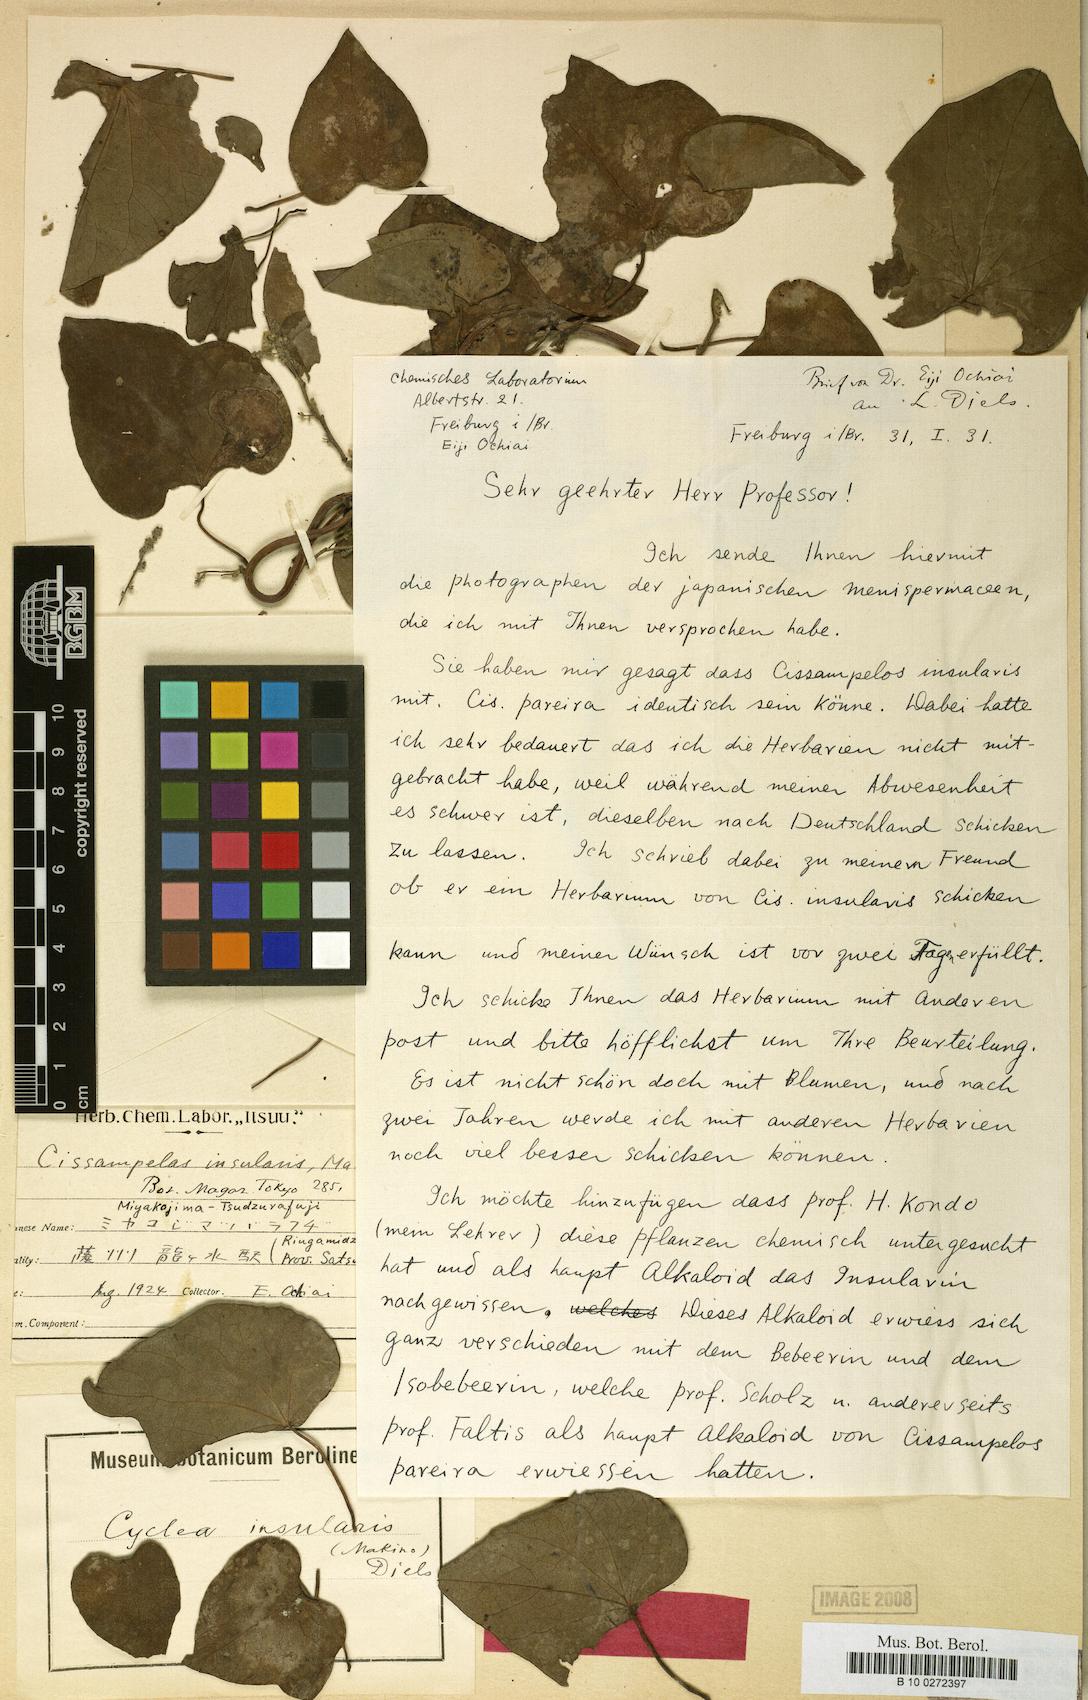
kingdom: Plantae
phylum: Tracheophyta
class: Magnoliopsida
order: Ranunculales
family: Menispermaceae
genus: Cyclea
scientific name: Cyclea insularis
